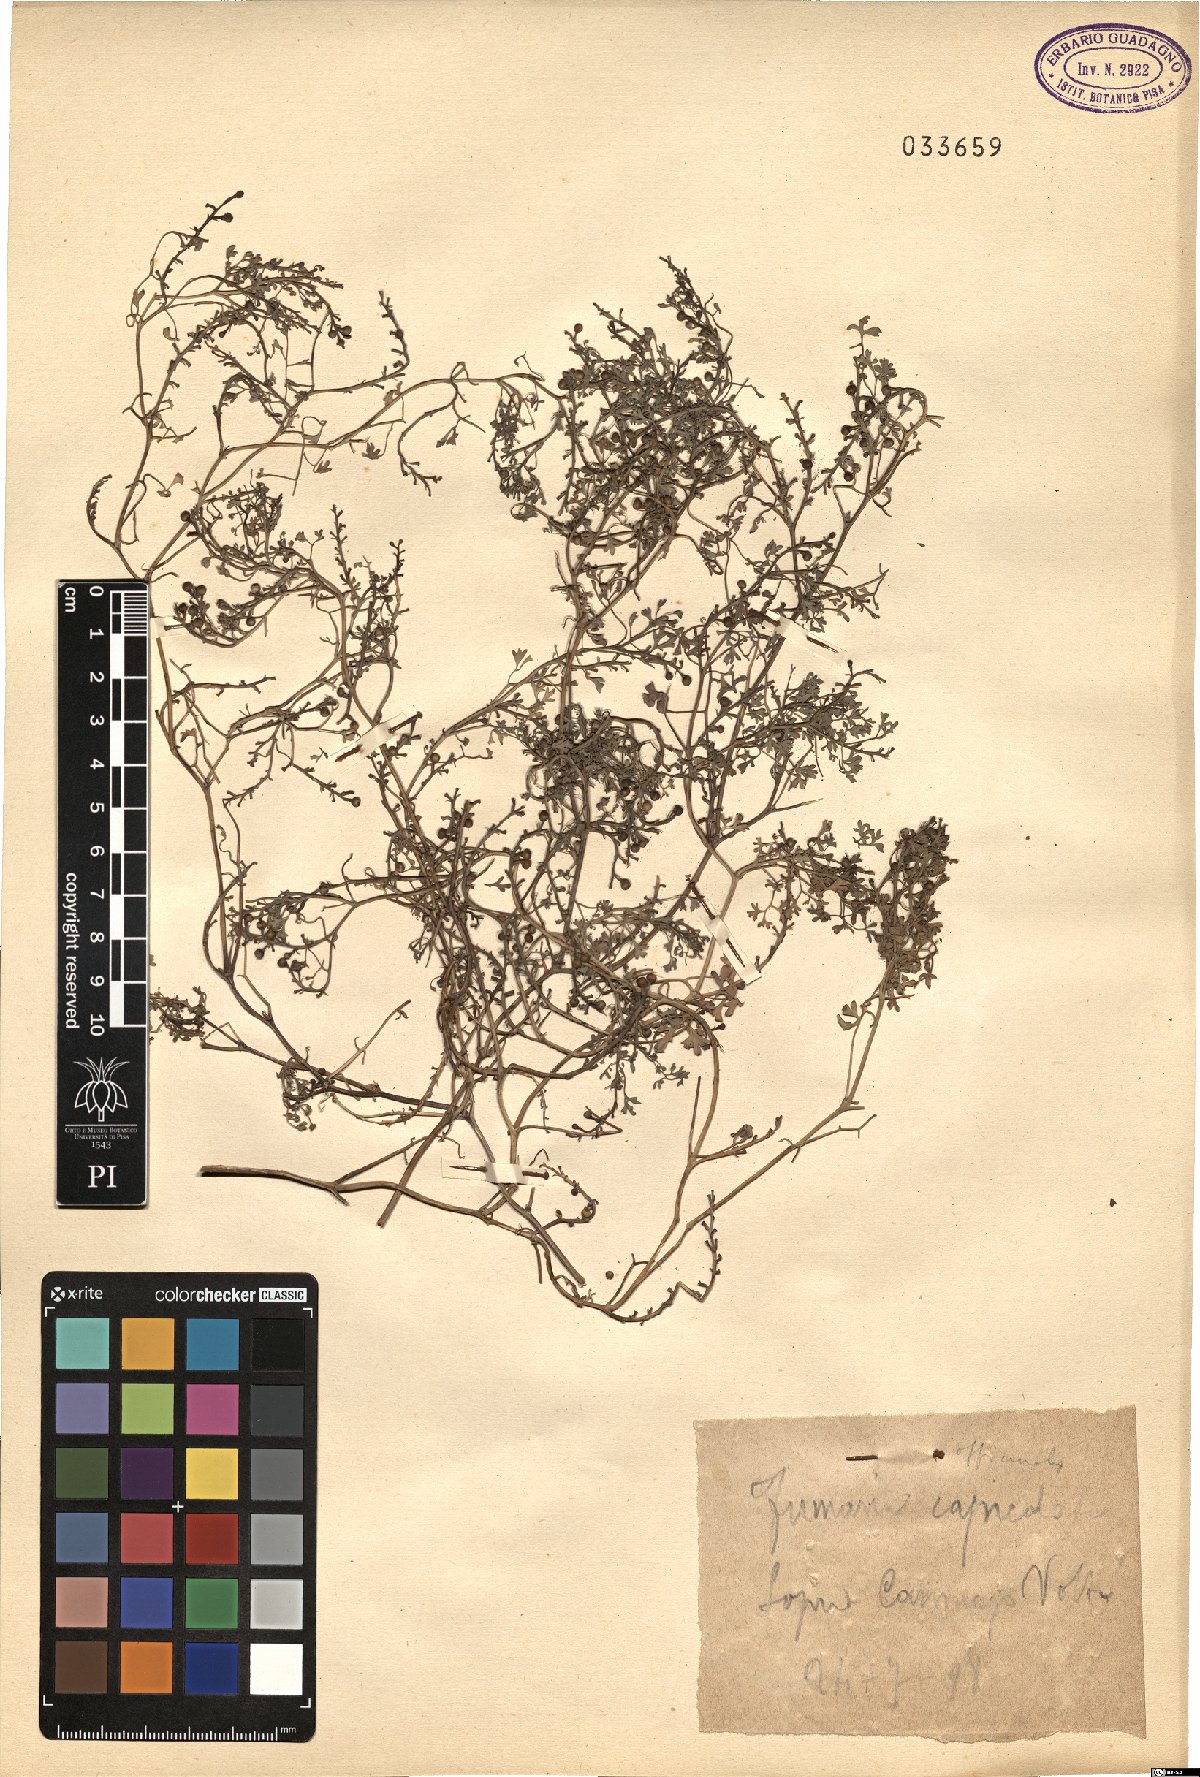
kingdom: Plantae
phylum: Tracheophyta
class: Magnoliopsida
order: Ranunculales
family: Papaveraceae
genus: Fumaria
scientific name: Fumaria officinalis
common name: Common fumitory
